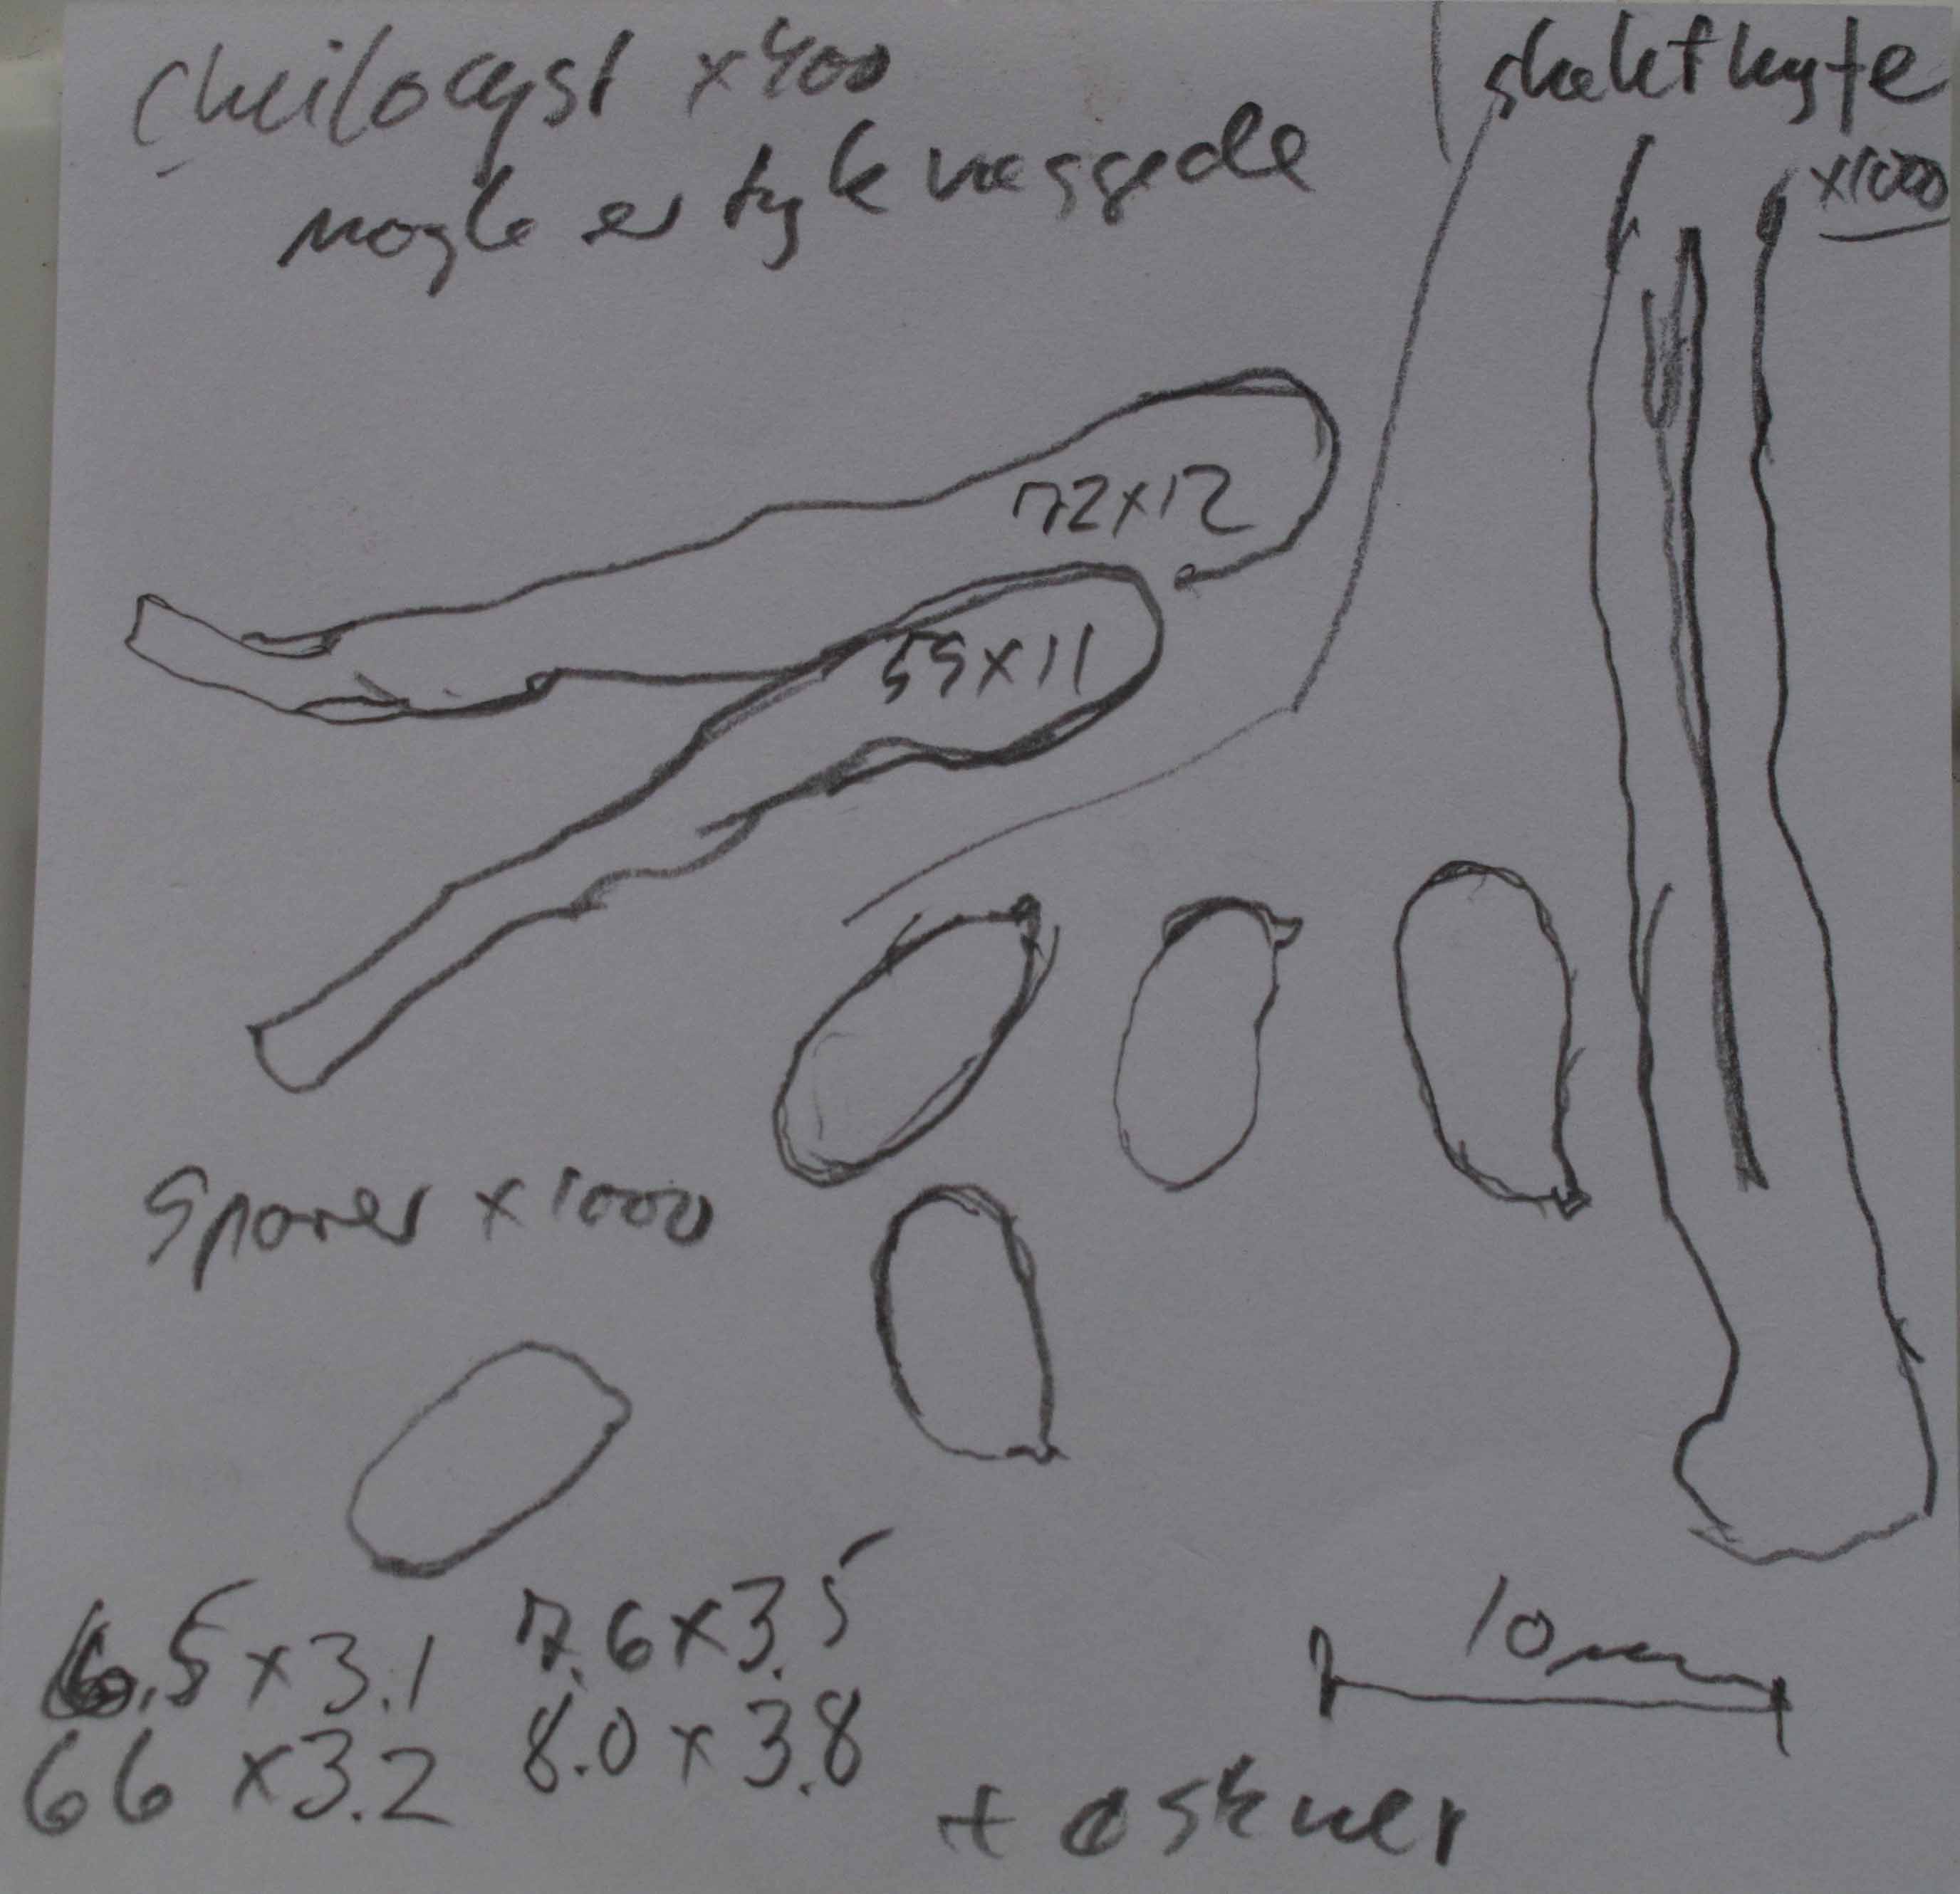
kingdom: Fungi
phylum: Basidiomycota
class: Agaricomycetes
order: Polyporales
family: Panaceae
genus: Panus
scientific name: Panus conchatus
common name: filtstokket læderhat
